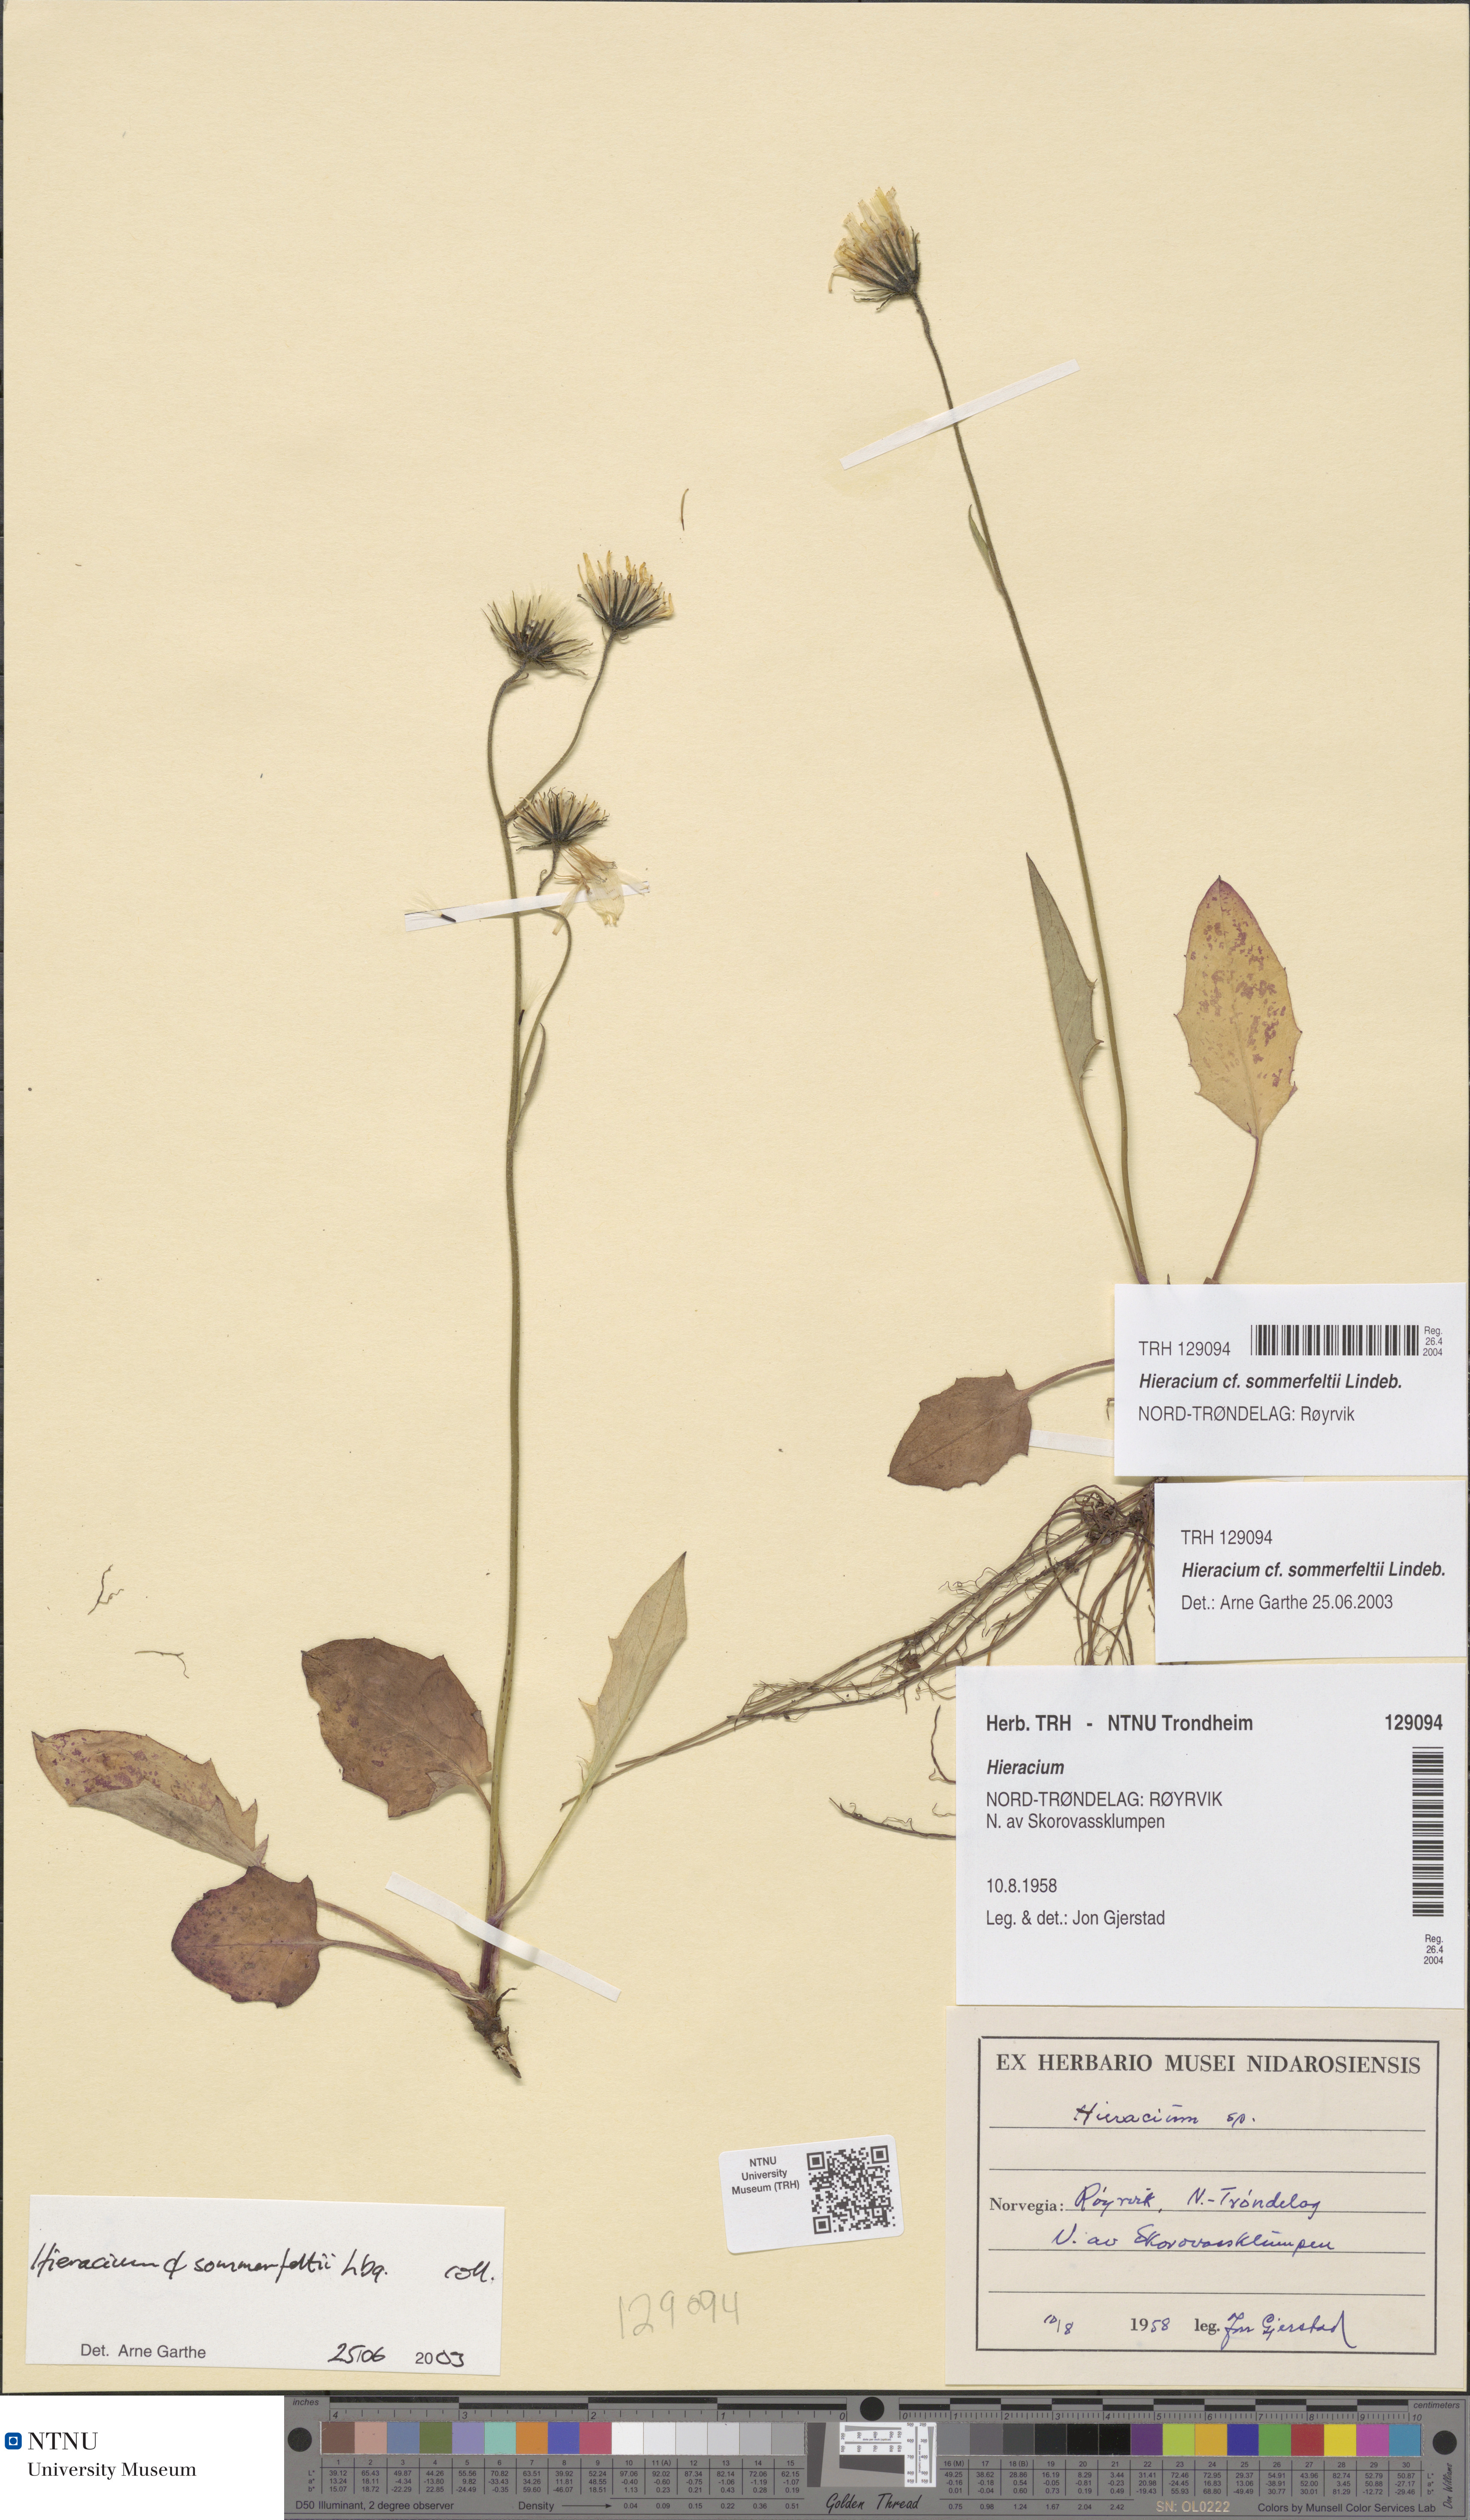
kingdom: Plantae
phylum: Tracheophyta
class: Magnoliopsida
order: Asterales
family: Asteraceae
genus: Hieracium
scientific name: Hieracium sommerfeltii
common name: Sommerfelt's hawkweed
